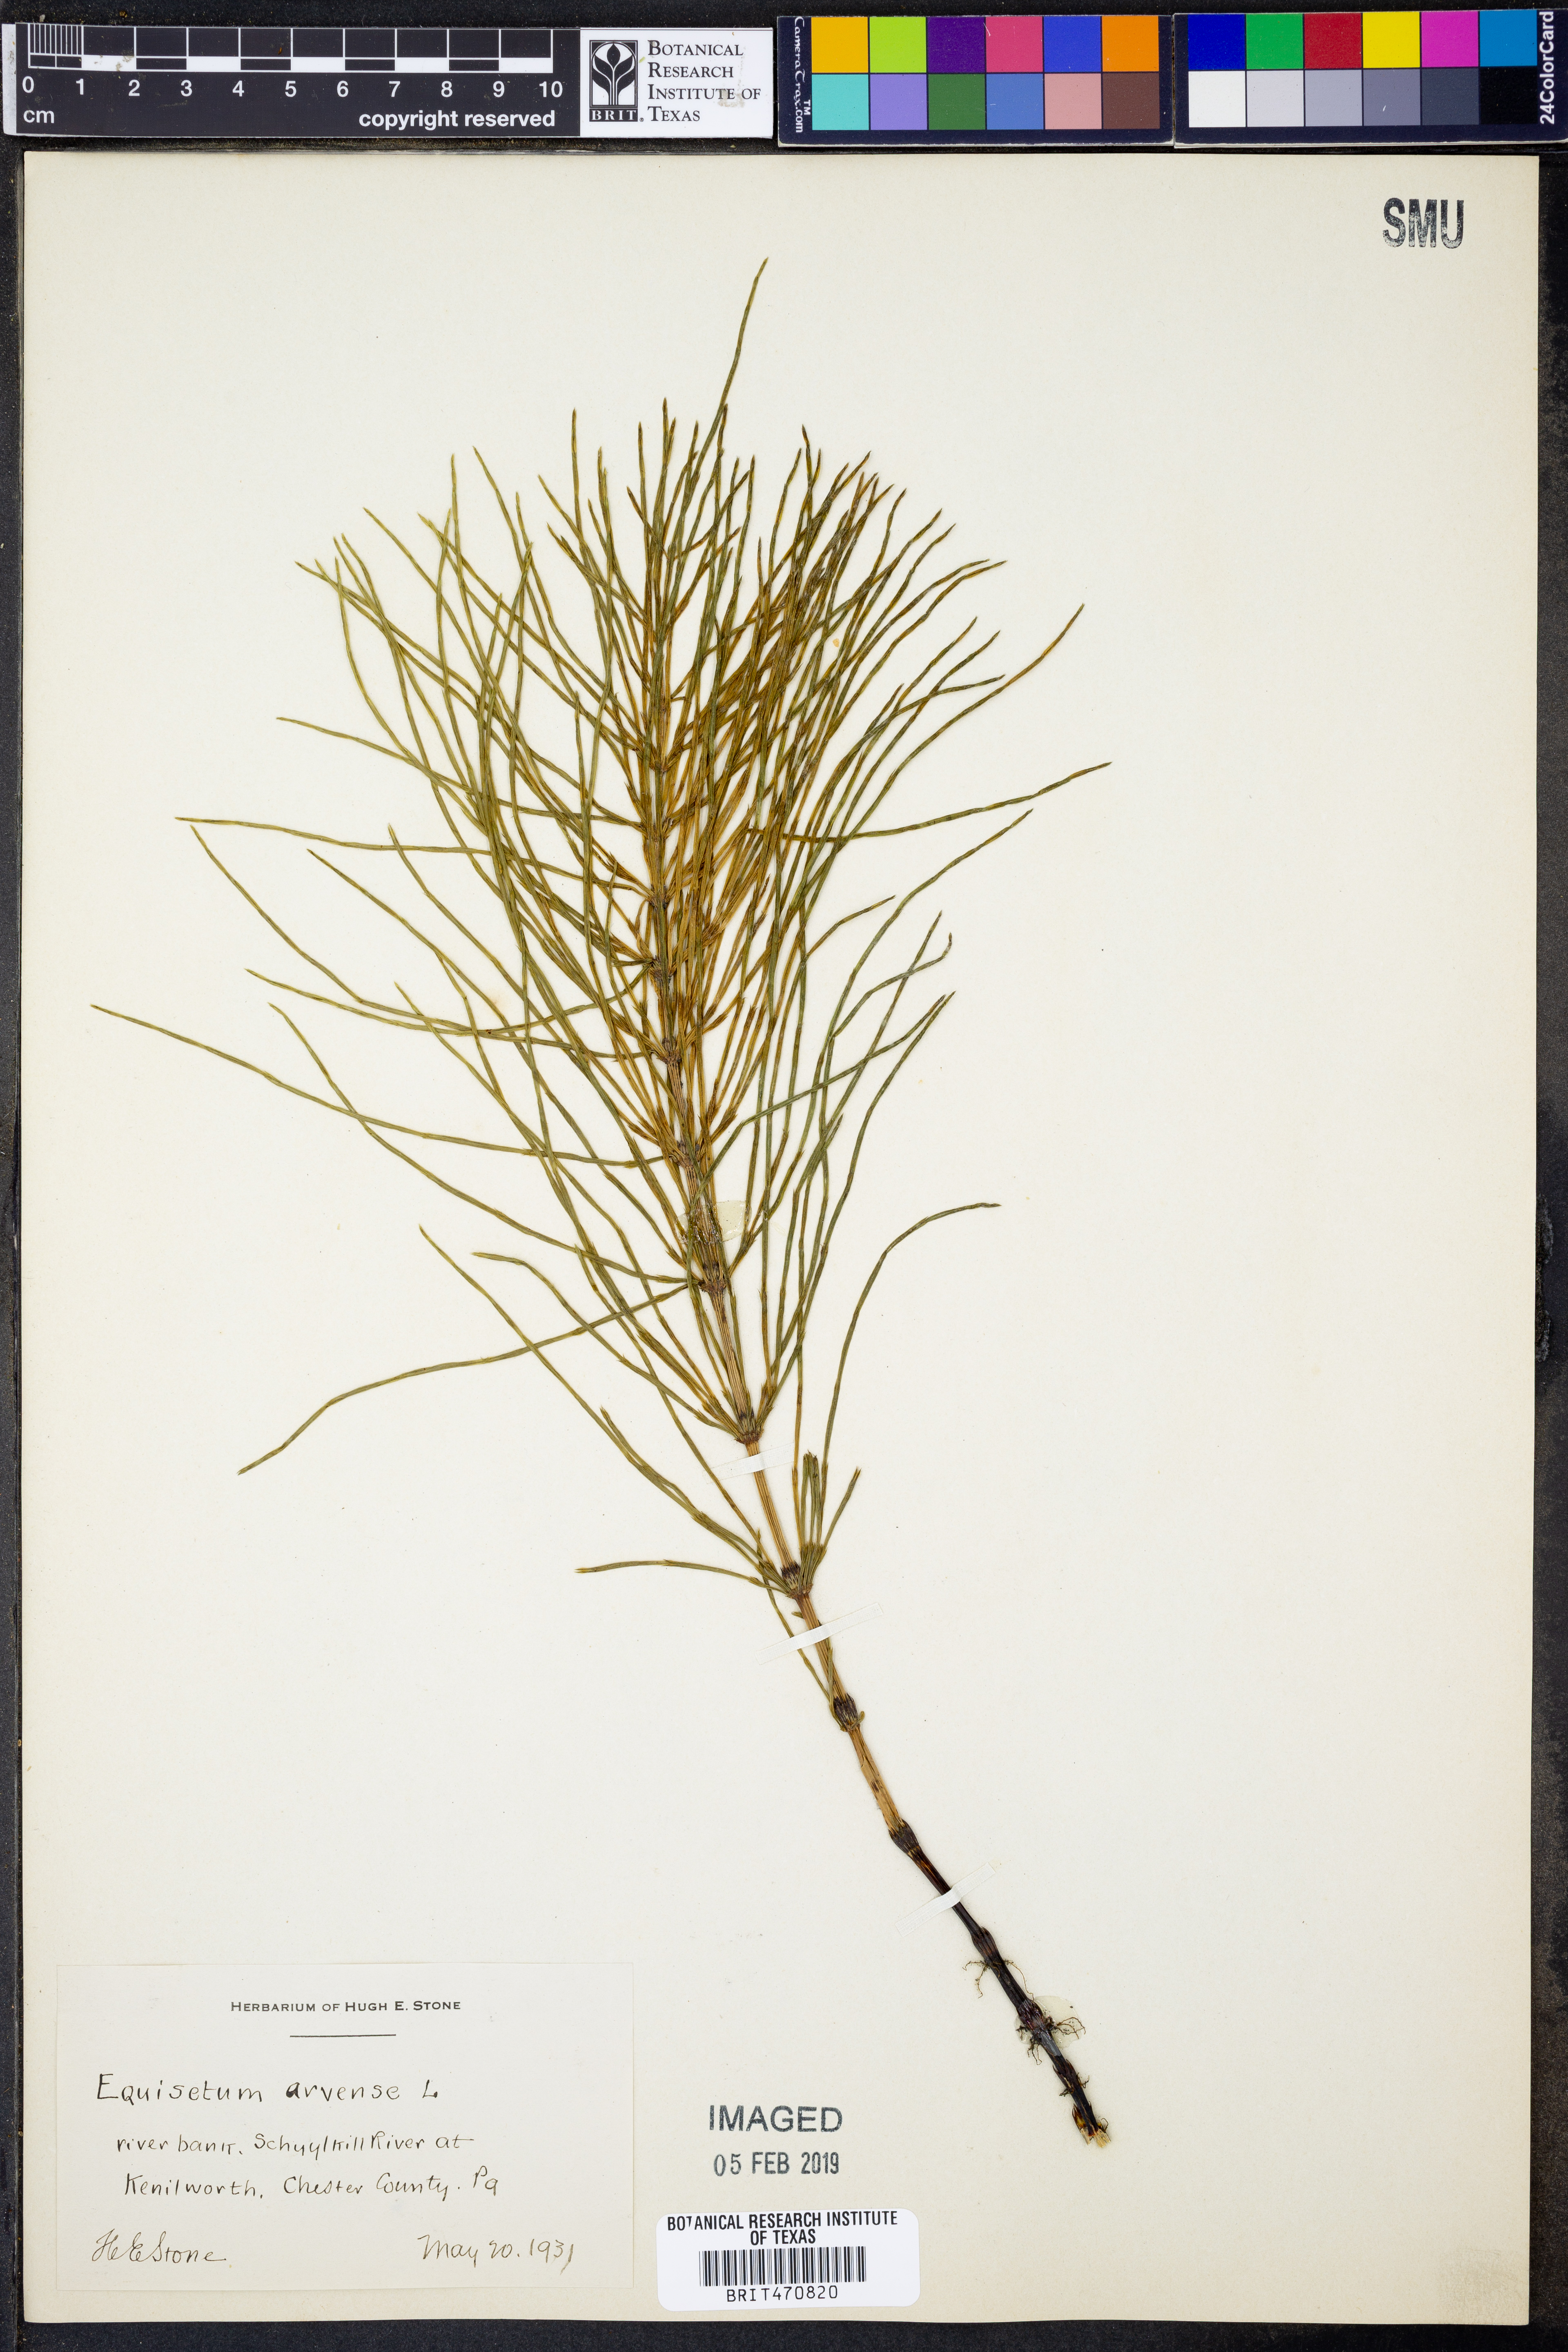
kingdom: Plantae
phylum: Tracheophyta
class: Polypodiopsida
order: Equisetales
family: Equisetaceae
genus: Equisetum
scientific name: Equisetum arvense
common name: Field horsetail
